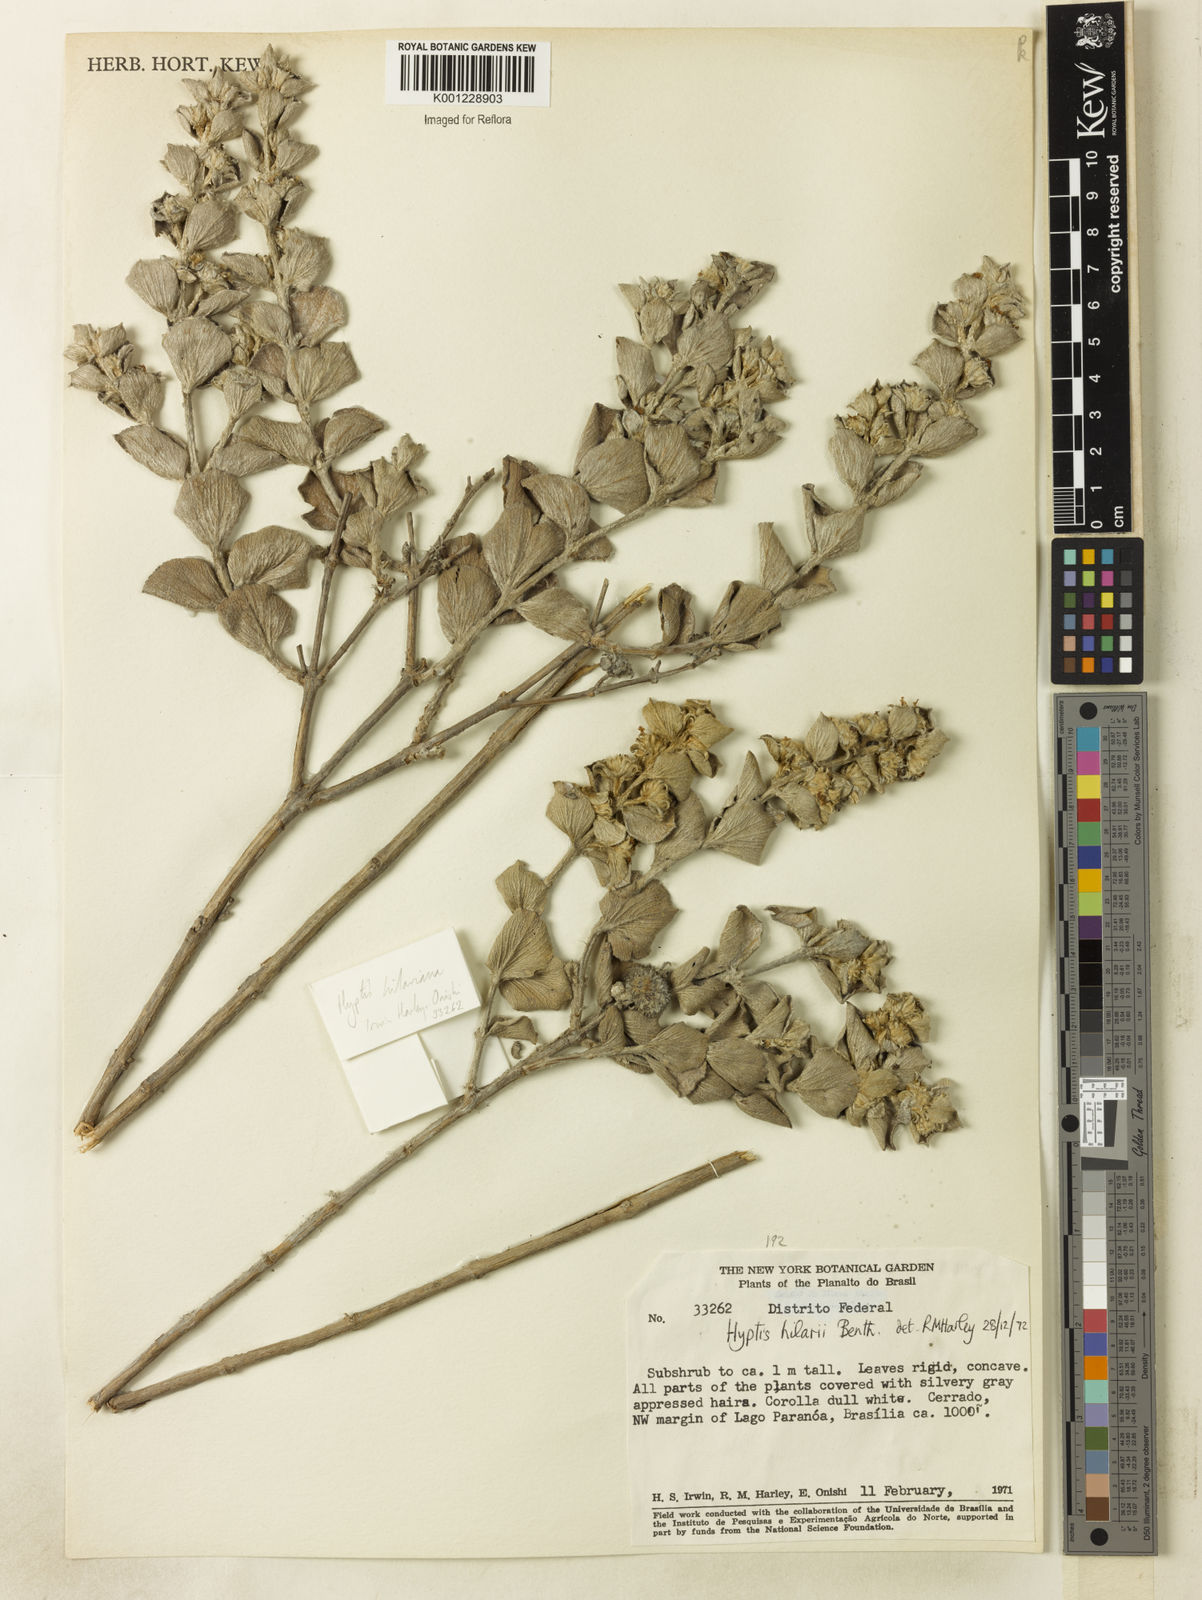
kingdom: Plantae
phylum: Tracheophyta
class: Magnoliopsida
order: Lamiales
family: Lamiaceae
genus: Hyptis
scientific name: Hyptis hilarii
